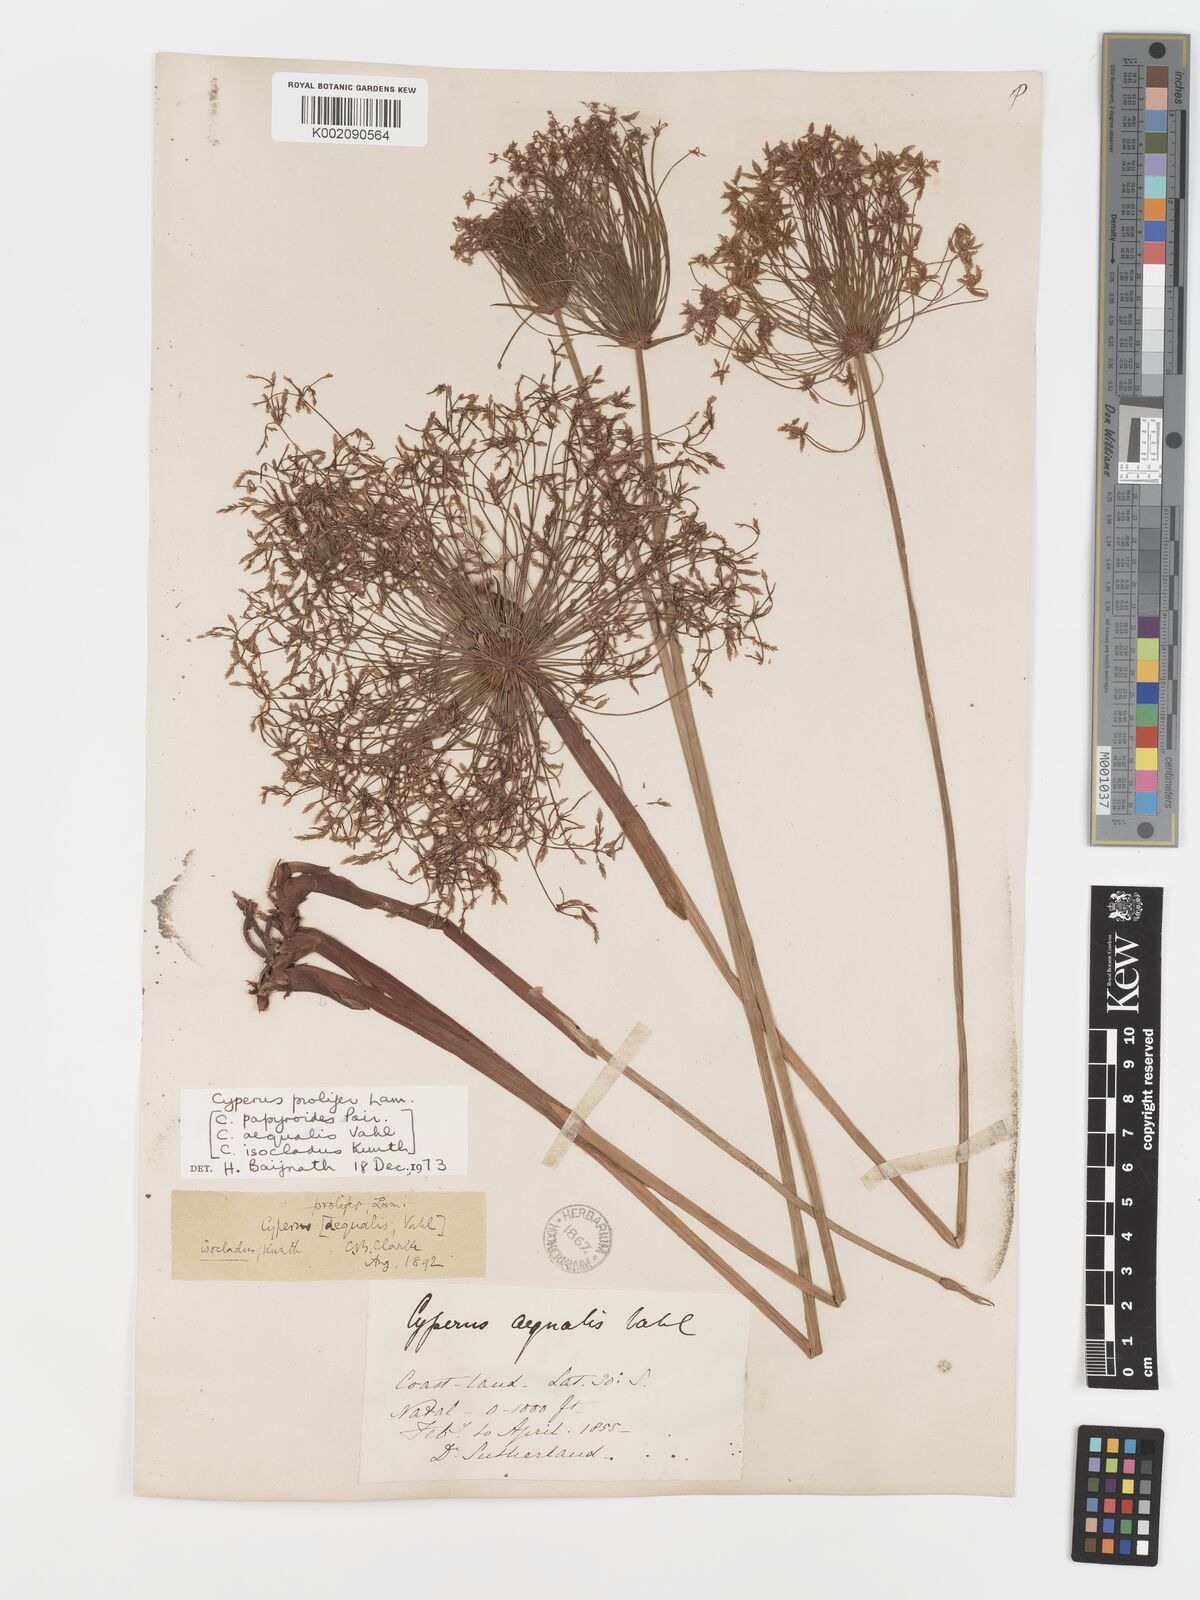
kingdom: Plantae
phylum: Tracheophyta
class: Liliopsida
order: Poales
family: Cyperaceae
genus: Cyperus
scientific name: Cyperus prolifer
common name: Miniature flatsedge
